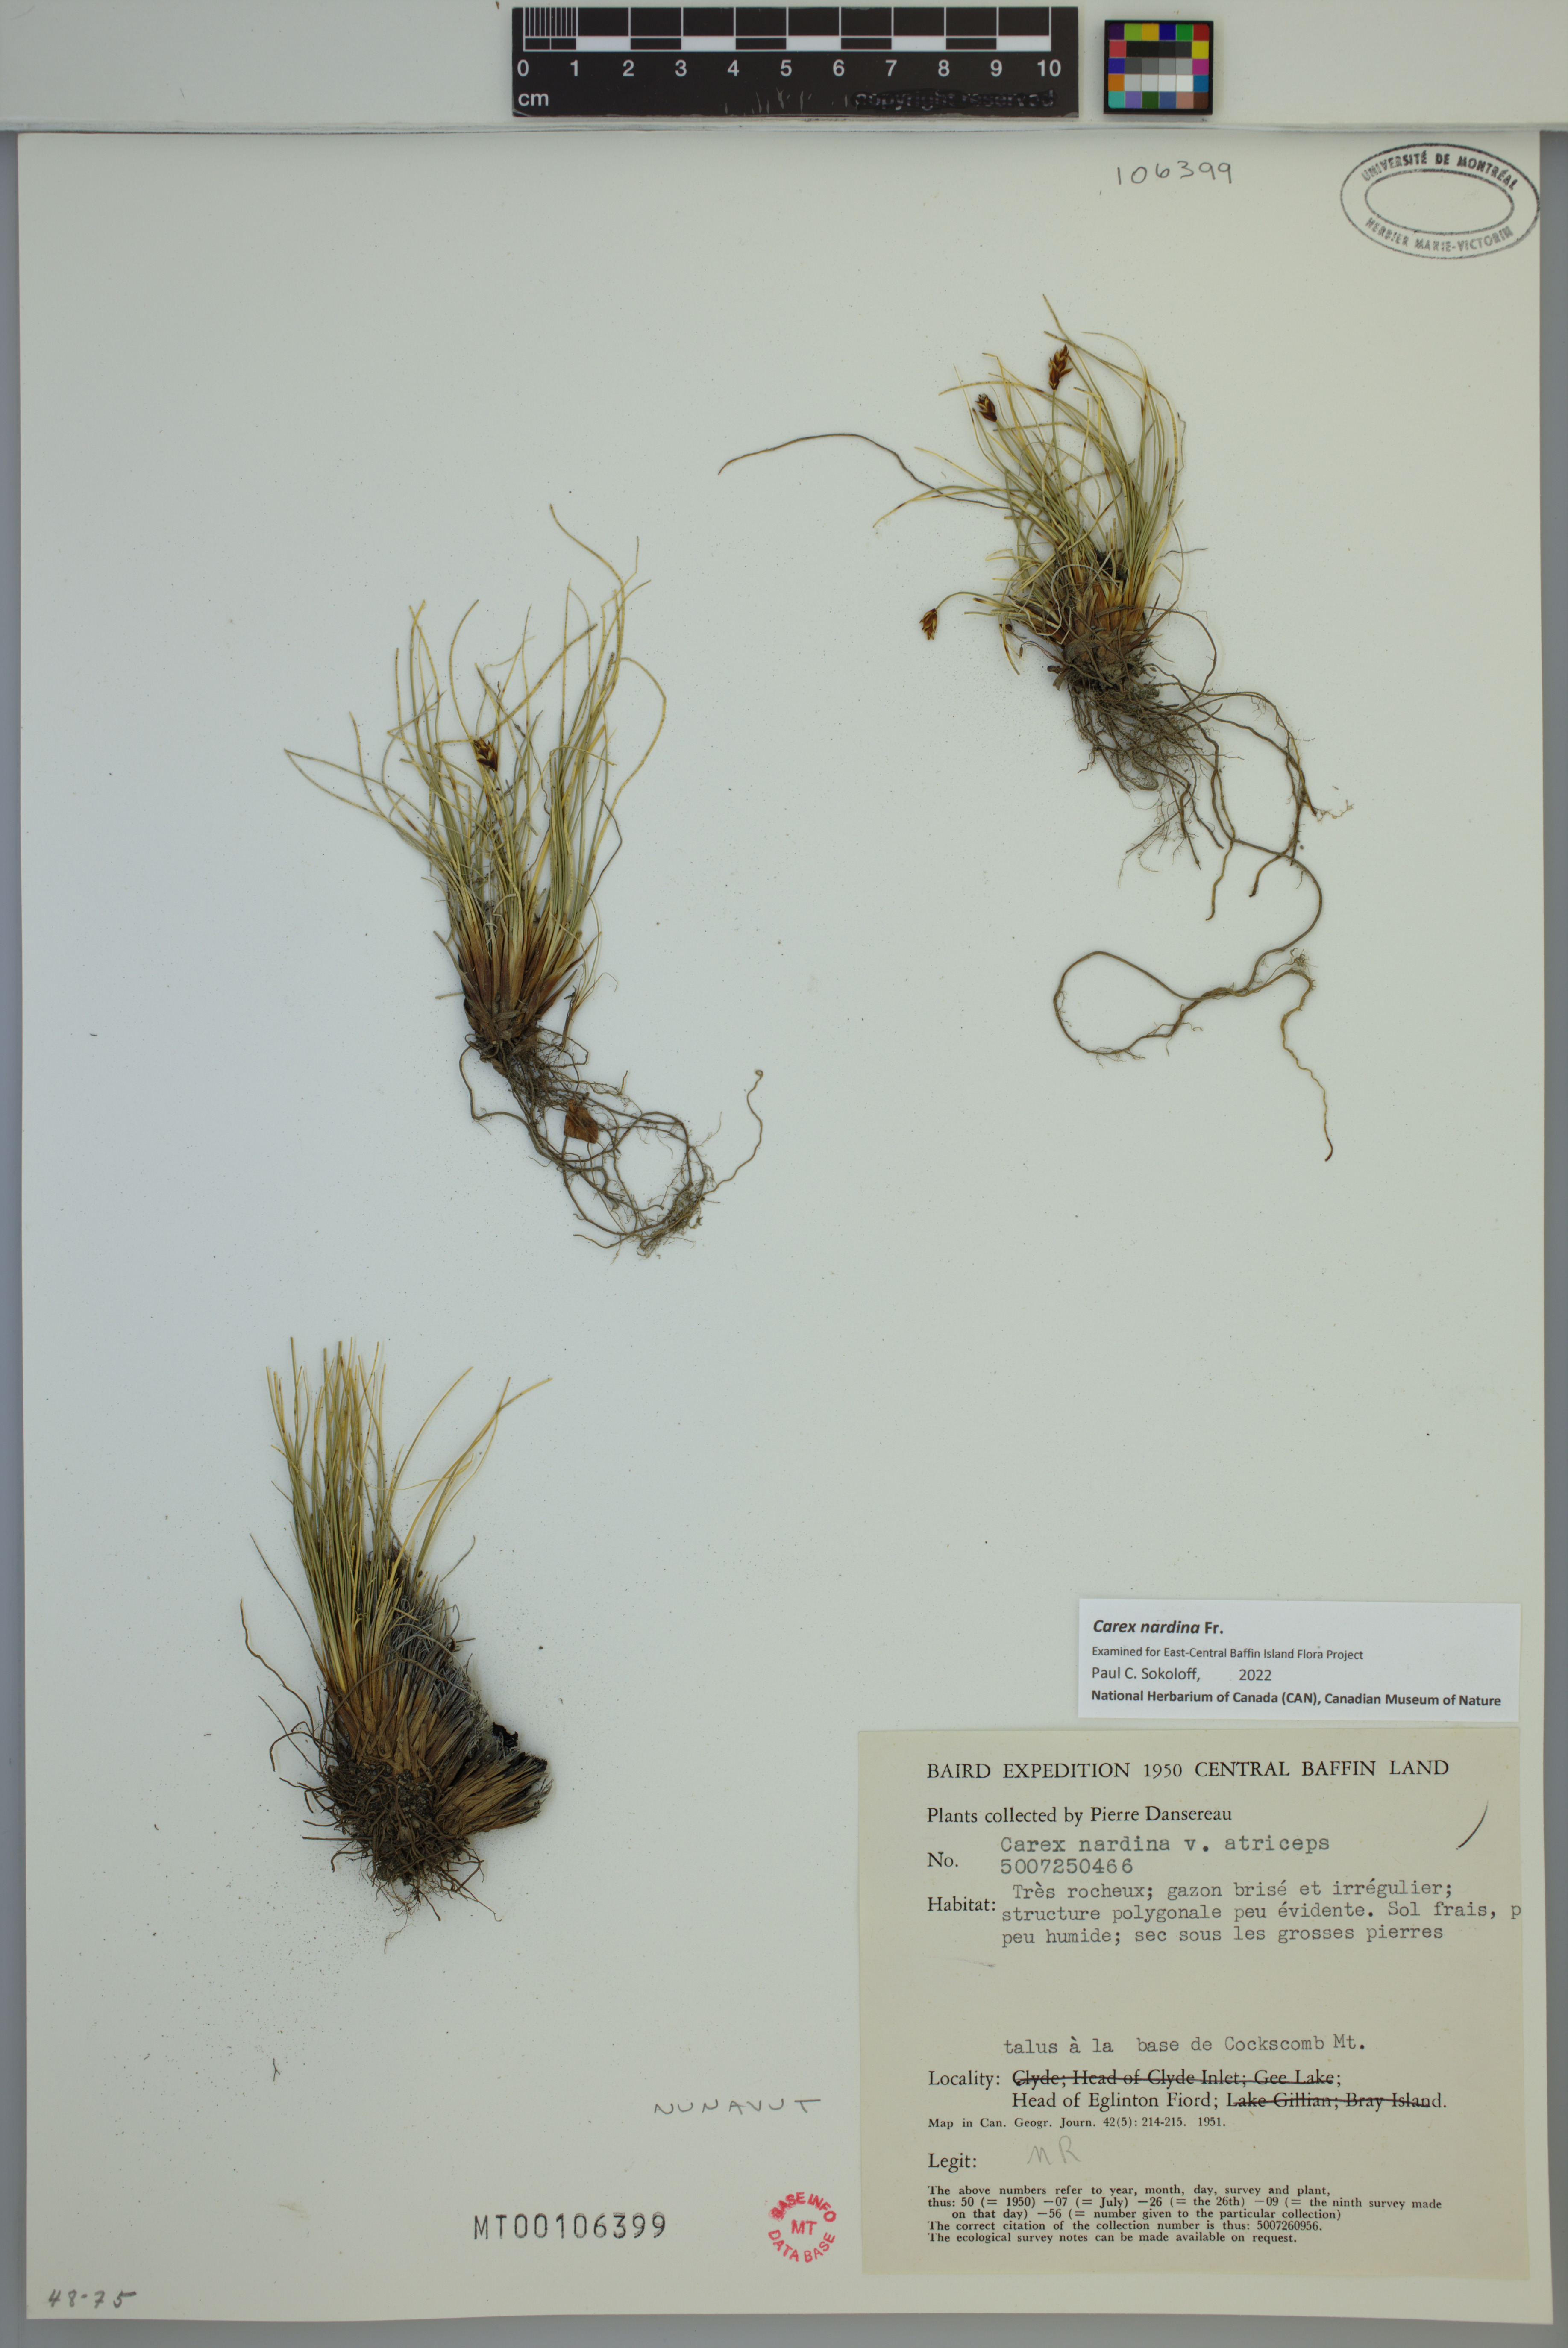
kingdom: Plantae
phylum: Tracheophyta
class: Liliopsida
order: Poales
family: Cyperaceae
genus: Carex
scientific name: Carex nardina
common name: Nard sedge
